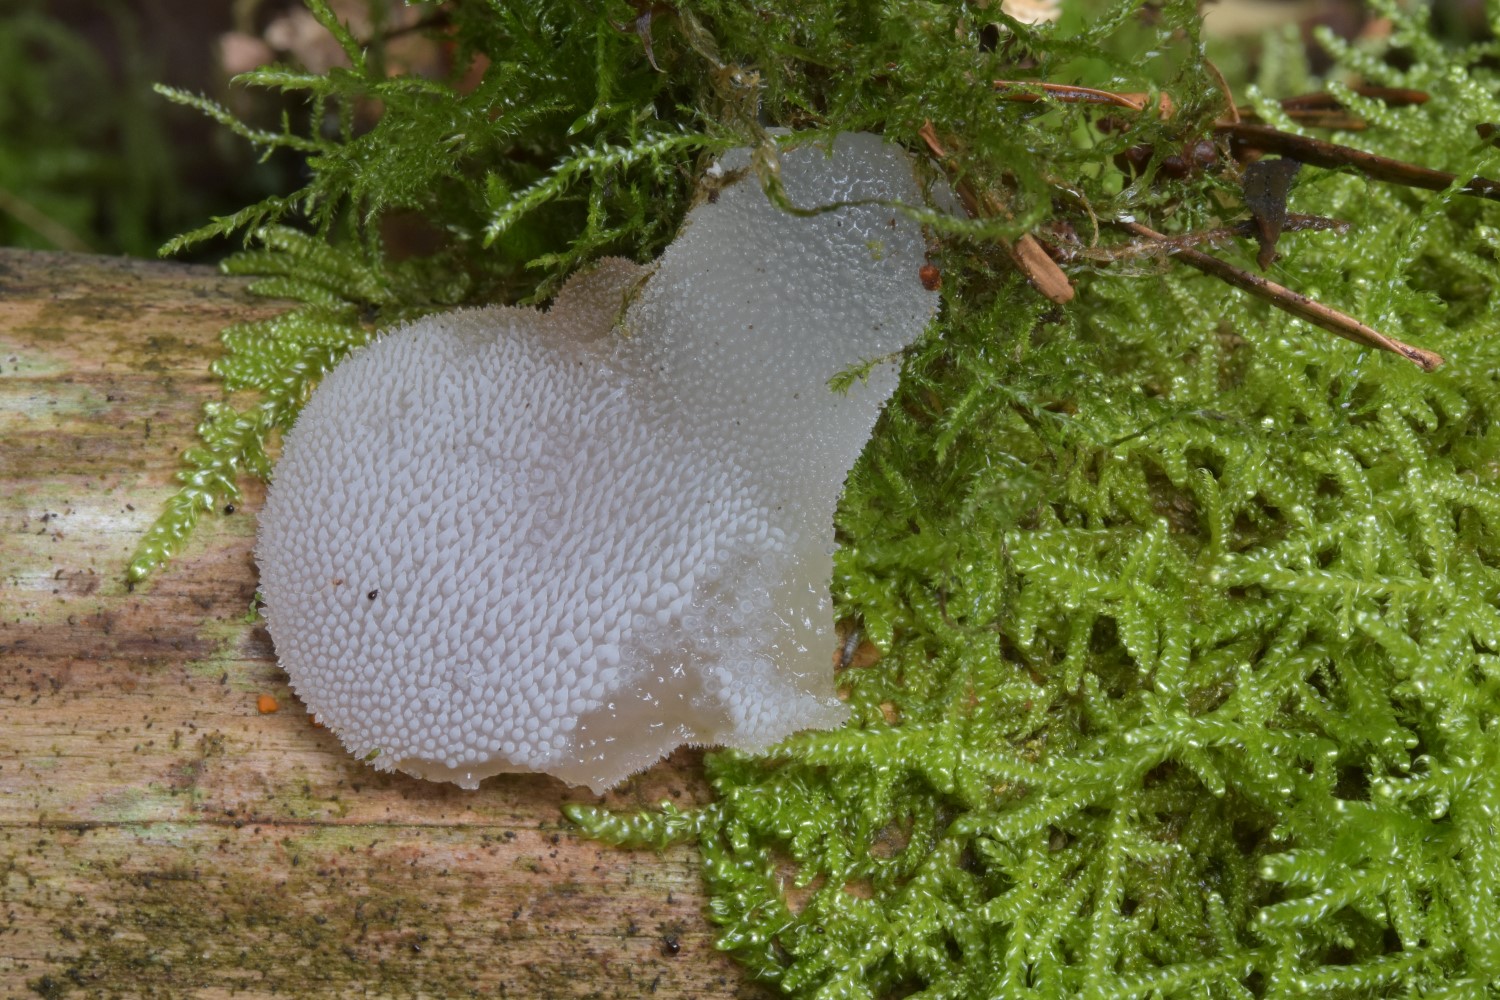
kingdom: Fungi
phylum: Basidiomycota
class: Agaricomycetes
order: Auriculariales
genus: Pseudohydnum
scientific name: Pseudohydnum gelatinosum
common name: bævretand
